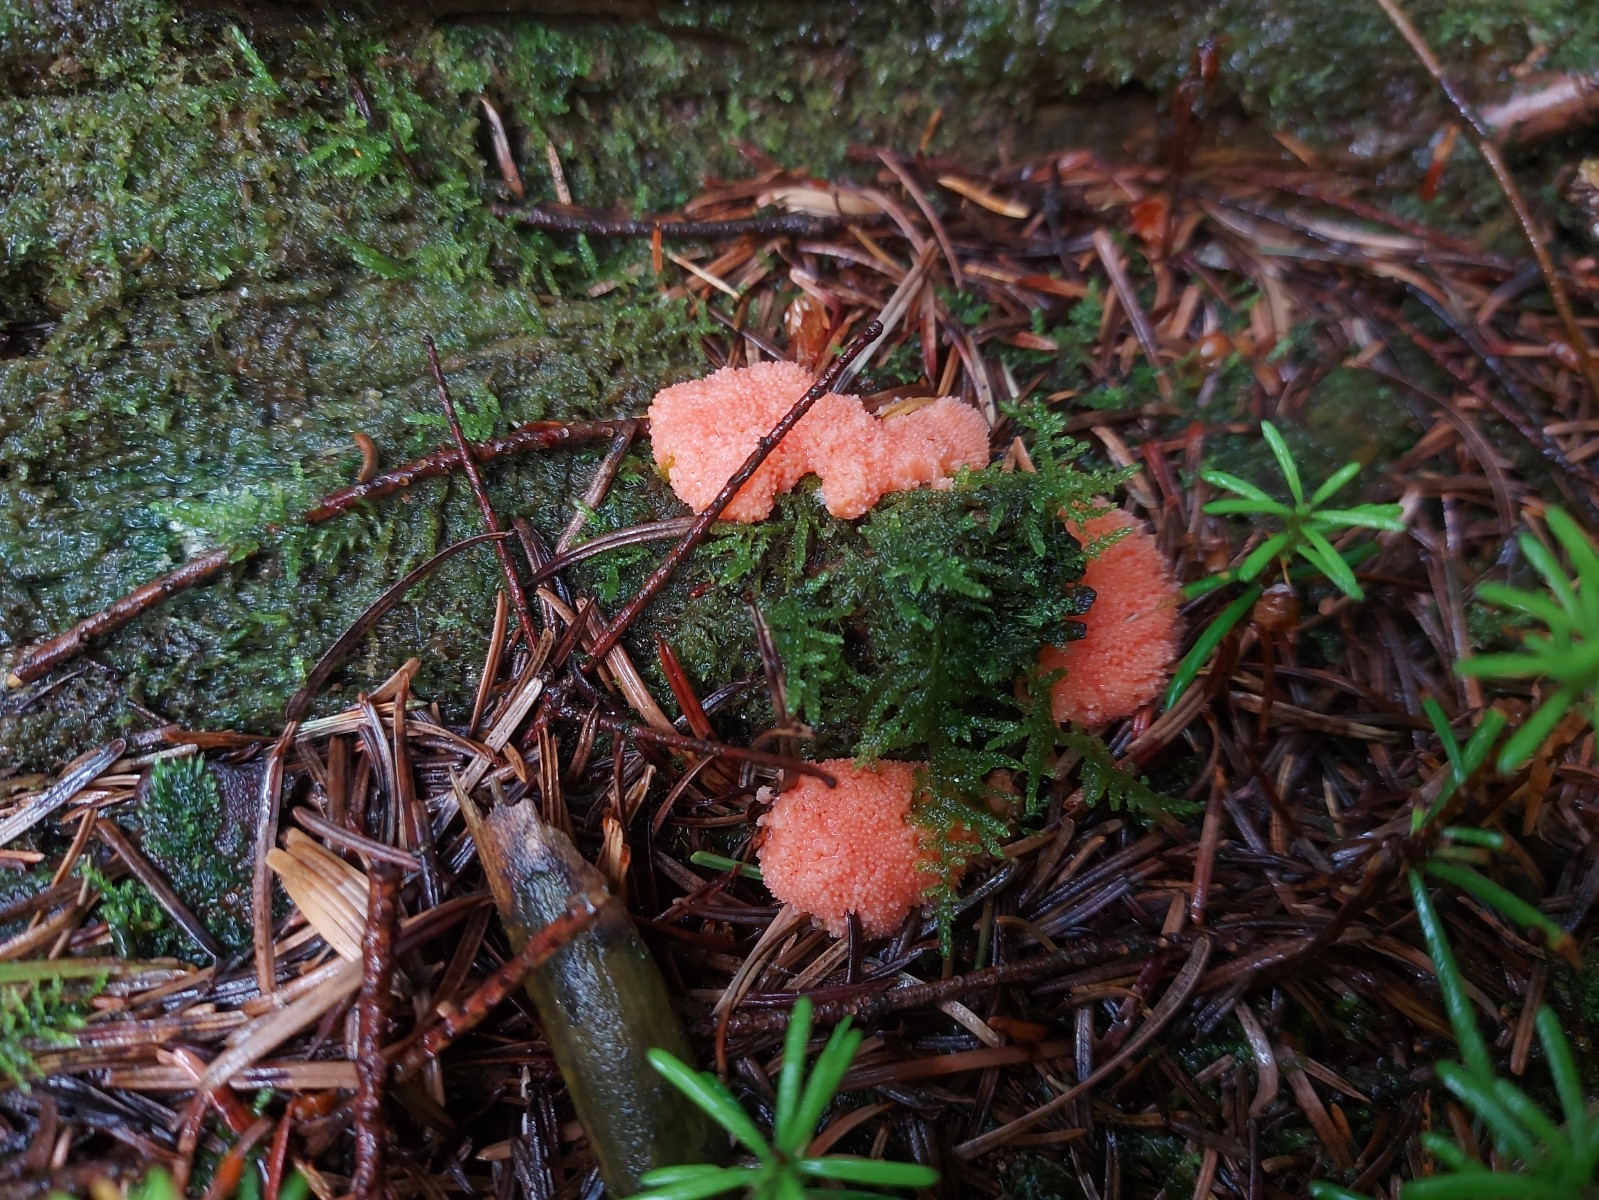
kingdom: Protozoa
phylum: Mycetozoa
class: Myxomycetes
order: Cribrariales
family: Tubiferaceae
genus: Tubifera
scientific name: Tubifera ferruginosa
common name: kanel-støvrør
